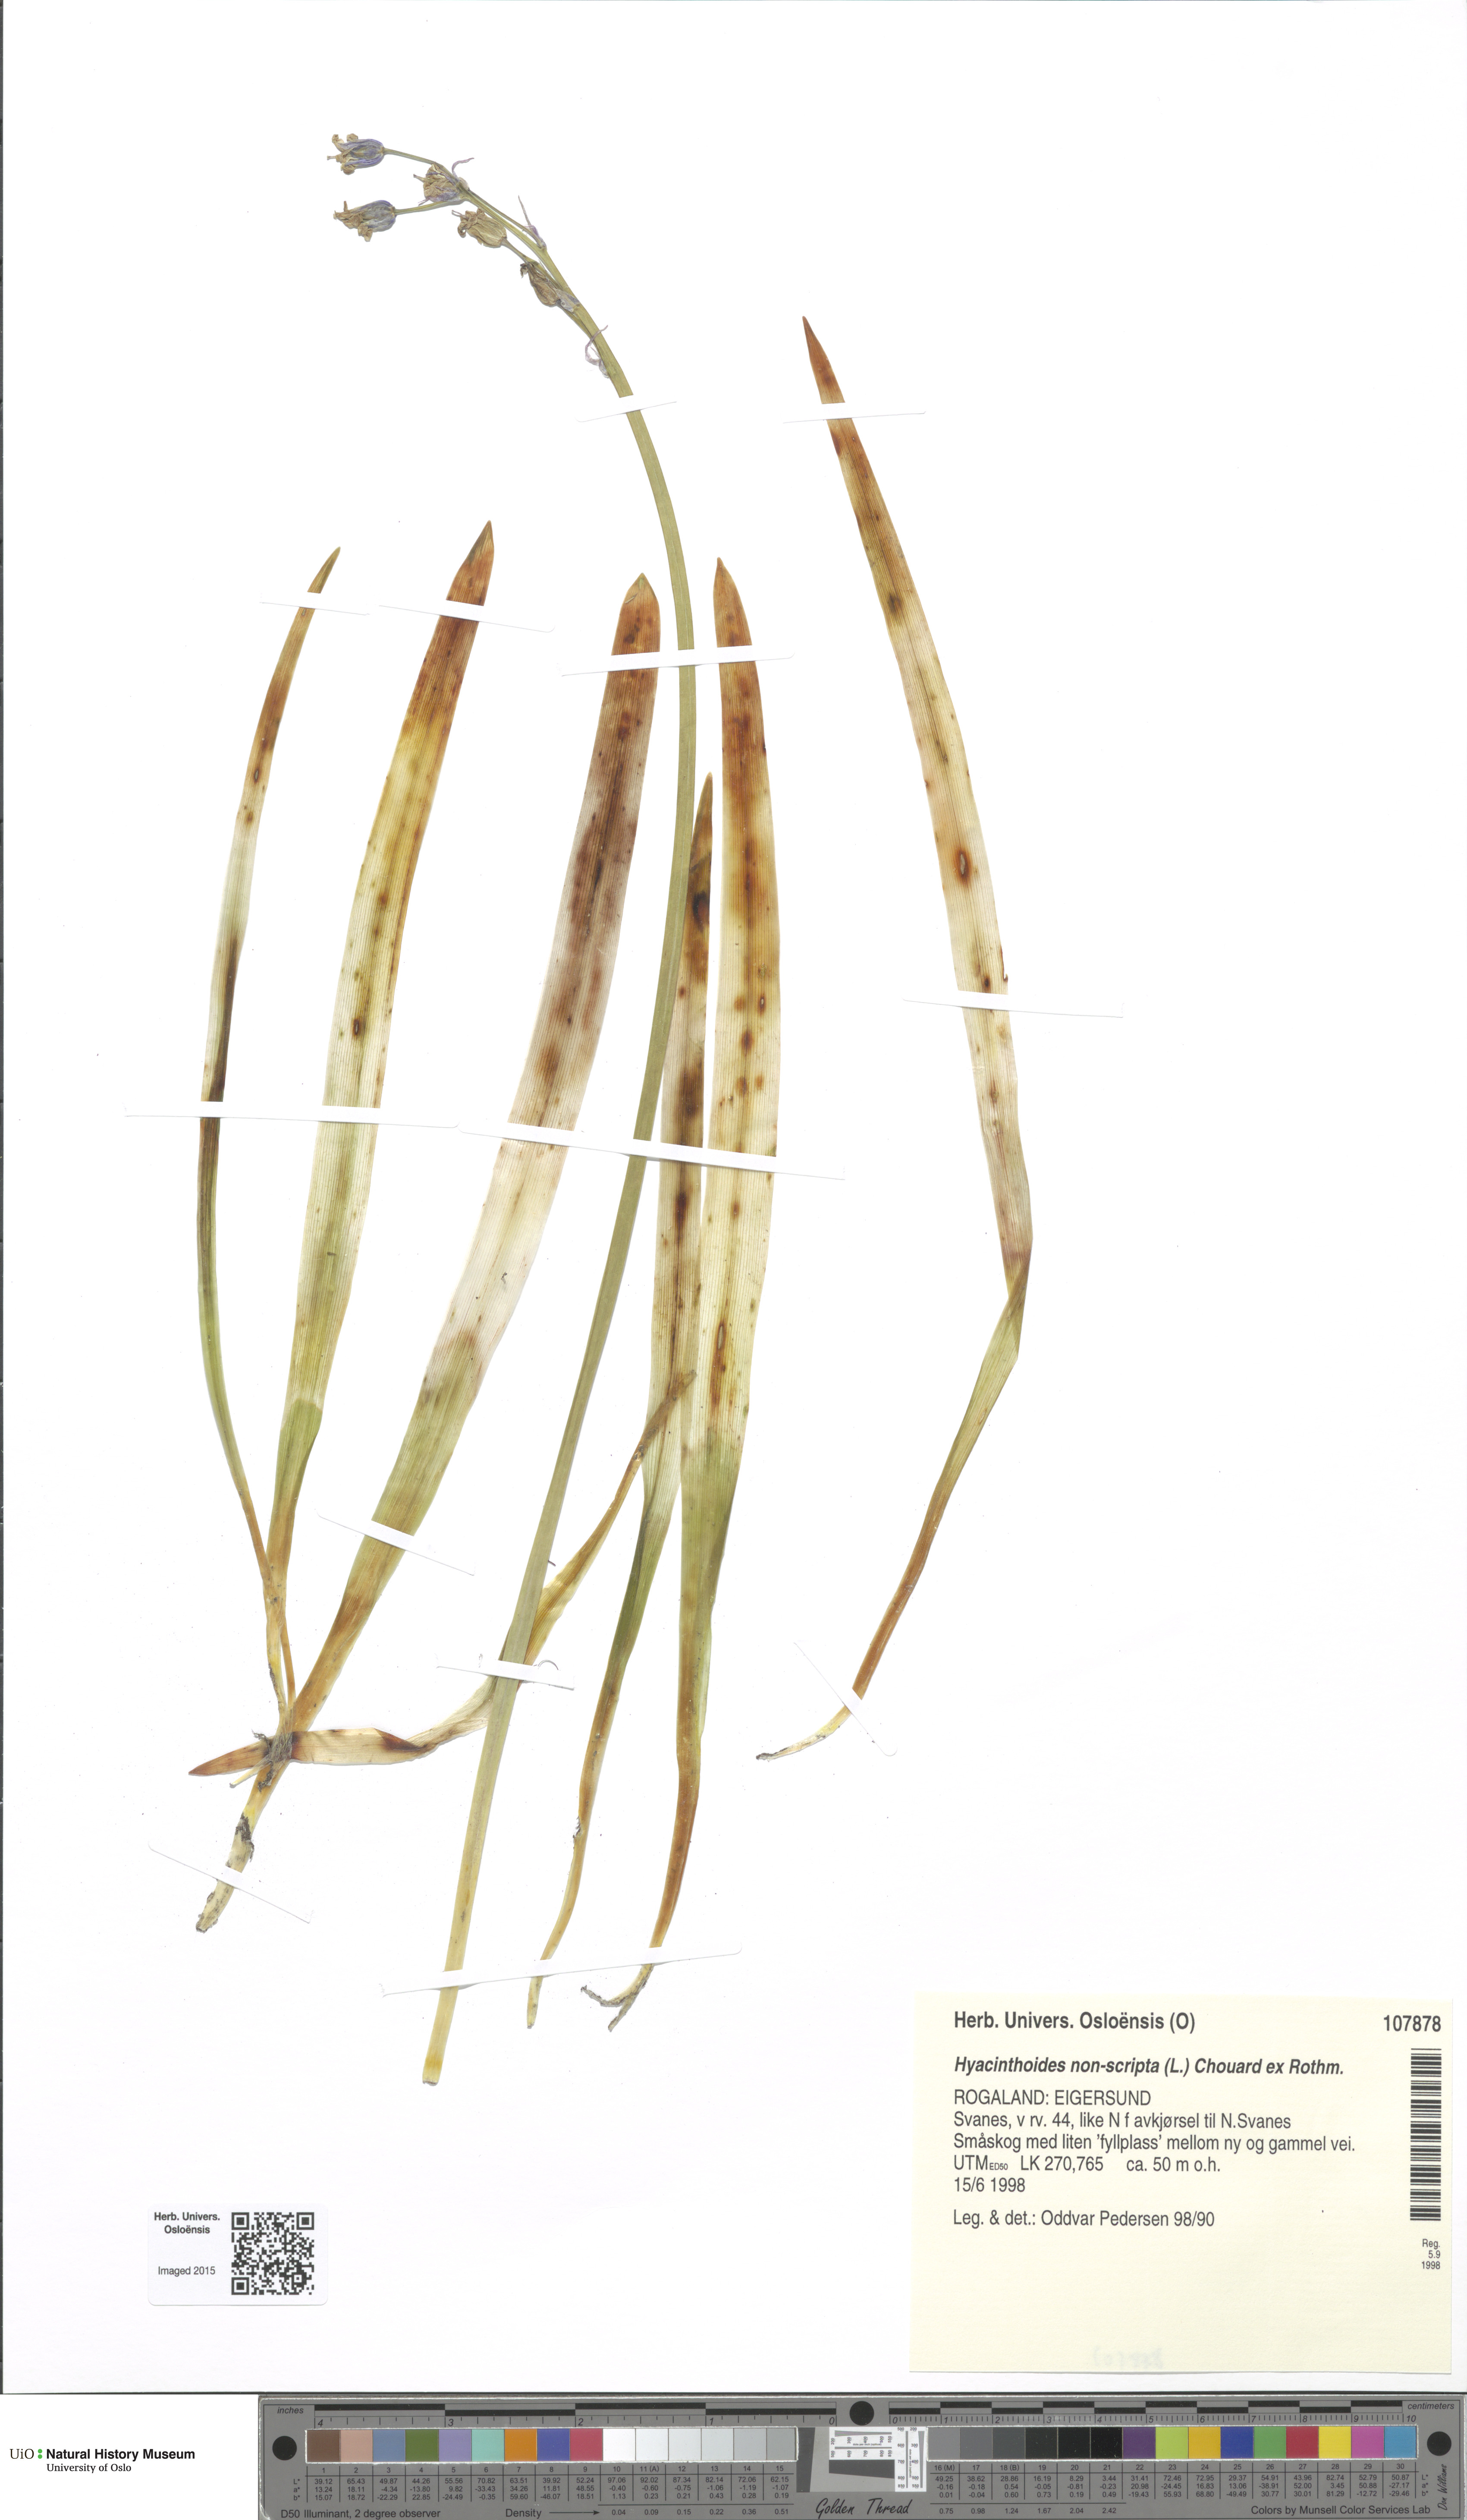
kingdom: Plantae
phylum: Tracheophyta
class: Liliopsida
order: Asparagales
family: Asparagaceae
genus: Hyacinthoides
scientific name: Hyacinthoides non-scripta
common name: Bluebell
